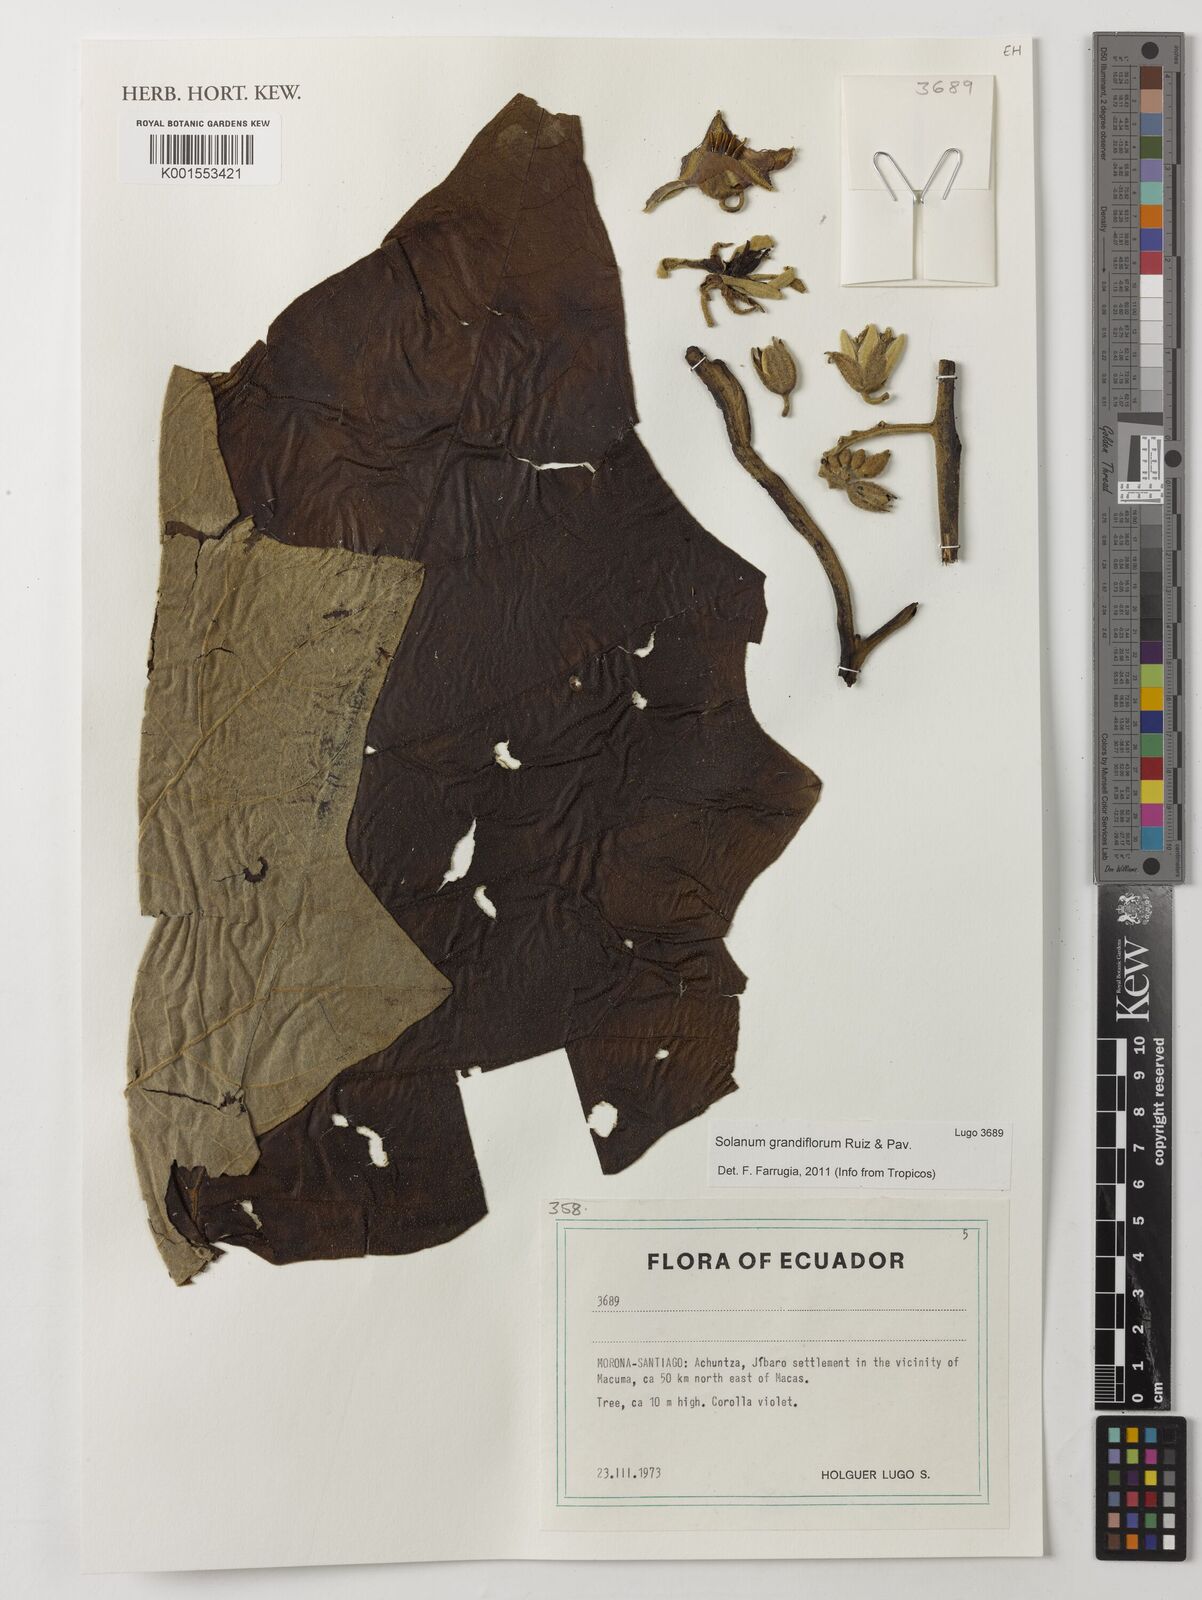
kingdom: Plantae
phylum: Tracheophyta
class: Magnoliopsida
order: Solanales
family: Solanaceae
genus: Solanum
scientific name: Solanum grandiflorum
